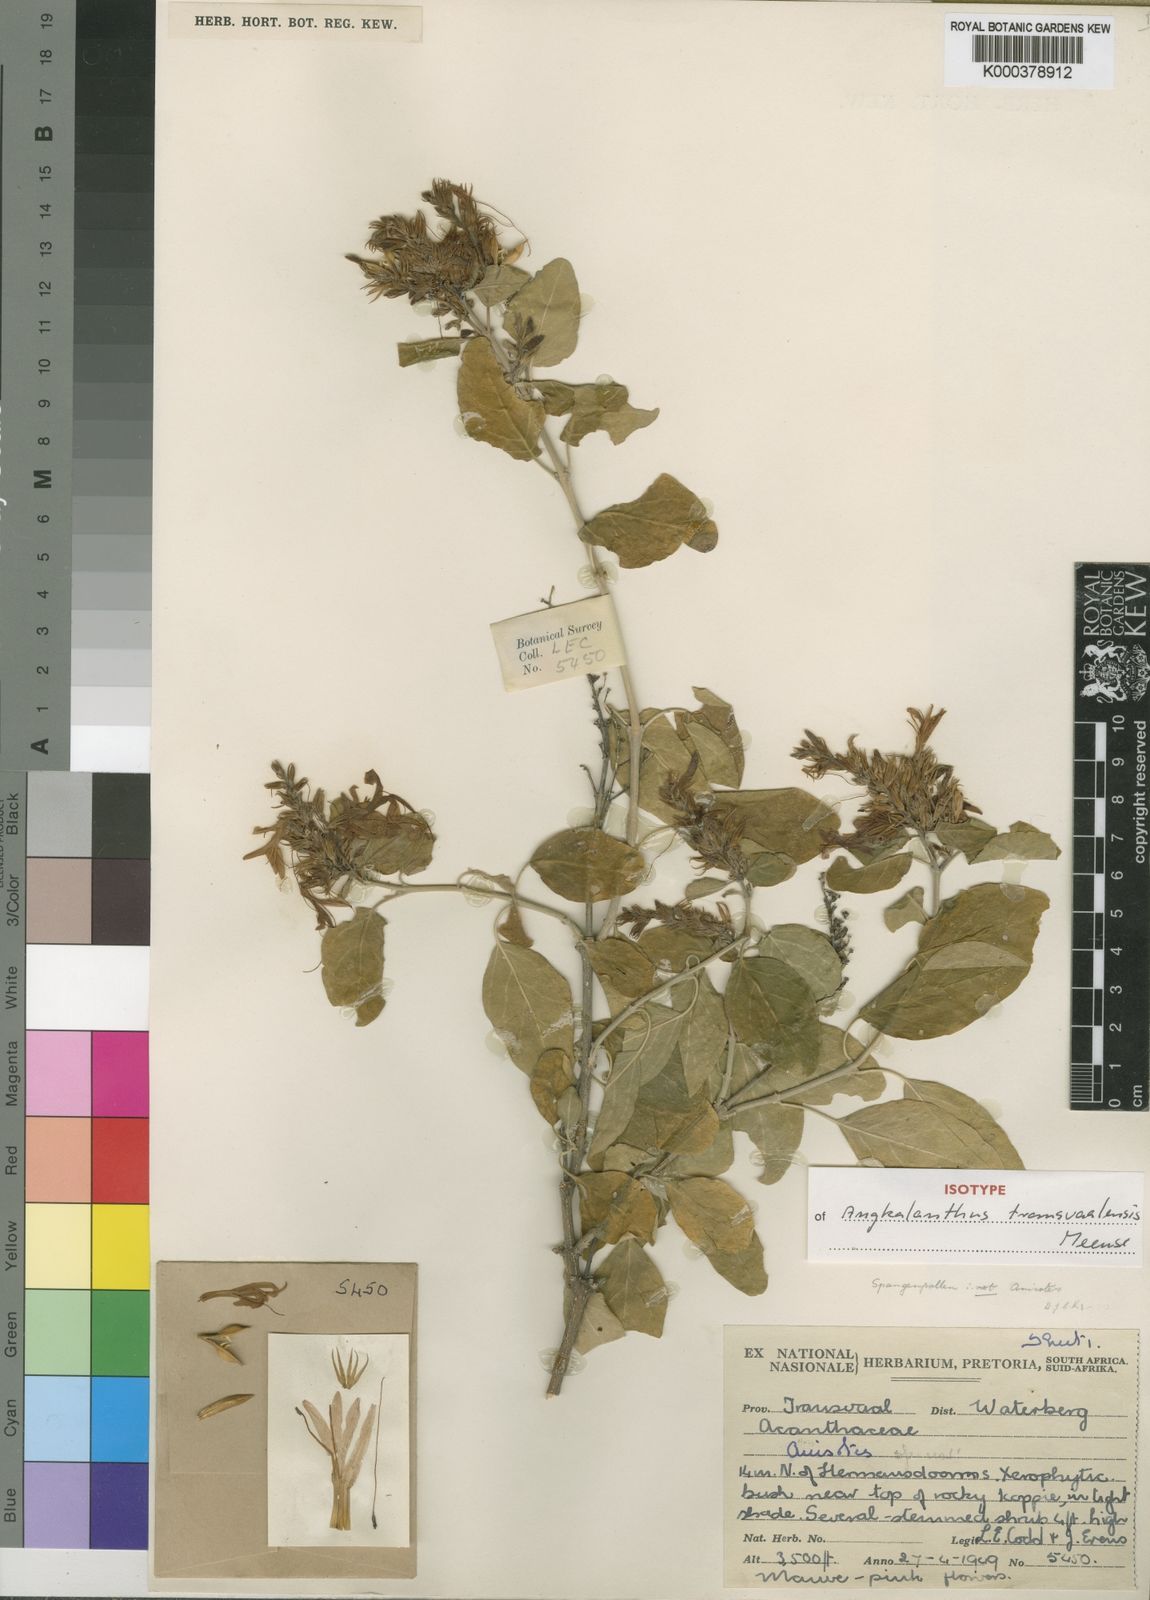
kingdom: Plantae
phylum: Tracheophyta
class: Magnoliopsida
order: Lamiales
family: Acanthaceae
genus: Chorisochora
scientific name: Chorisochora transvaalensis
